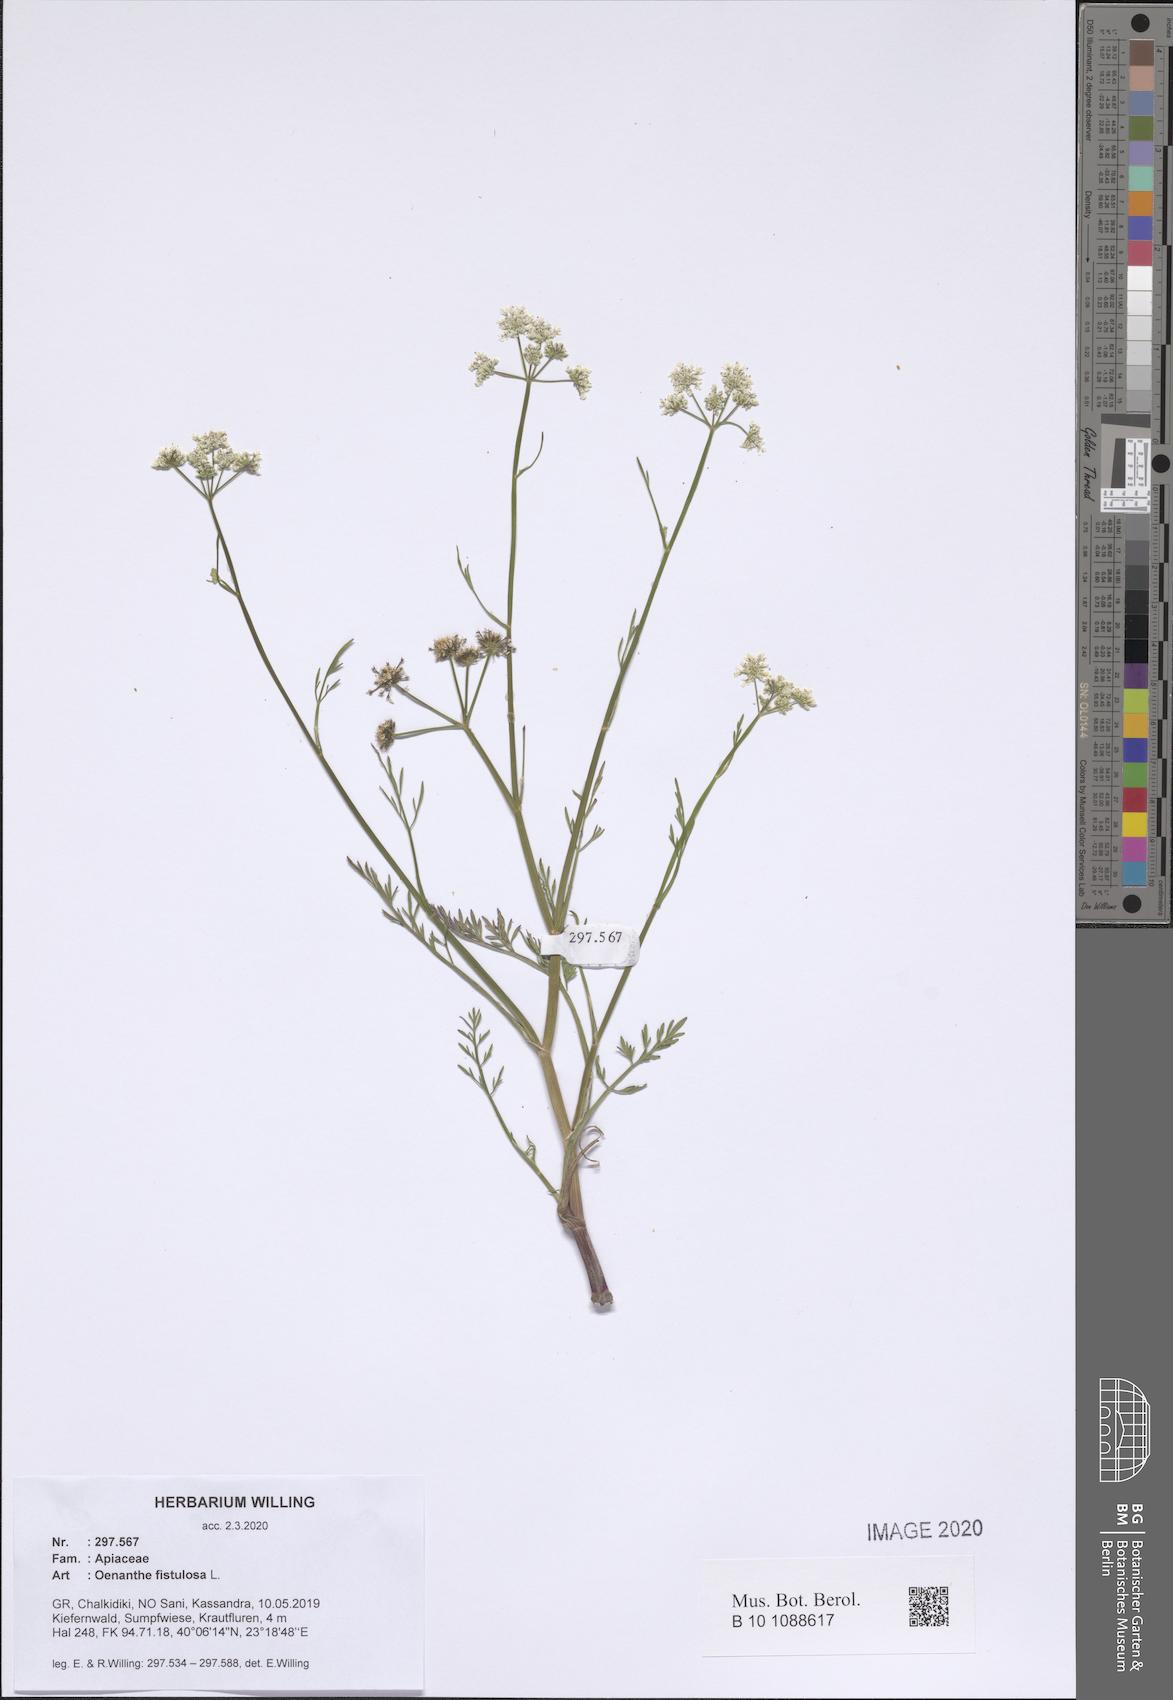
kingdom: Plantae
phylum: Tracheophyta
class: Magnoliopsida
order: Apiales
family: Apiaceae
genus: Oenanthe
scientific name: Oenanthe fistulosa
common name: Tubular water-dropwort
